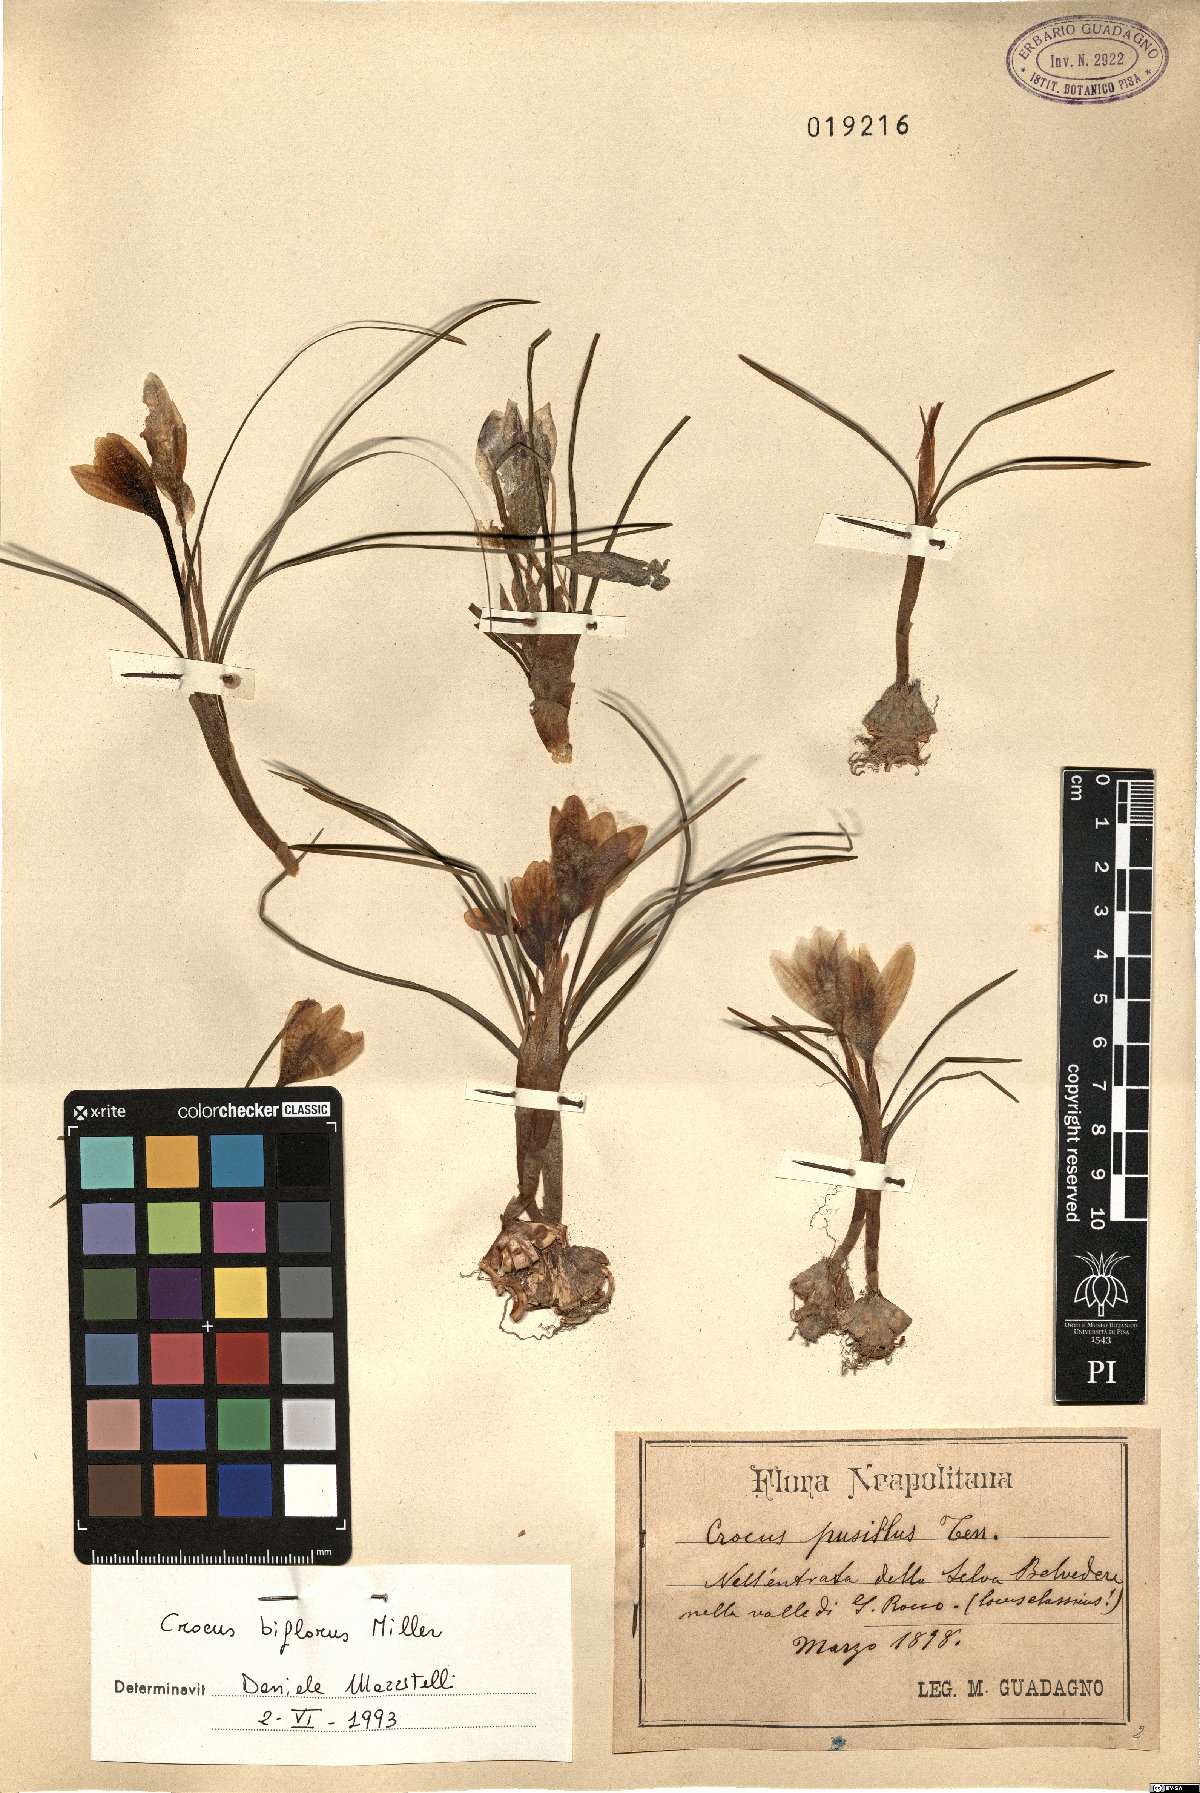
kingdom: Plantae
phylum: Tracheophyta
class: Liliopsida
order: Asparagales
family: Iridaceae
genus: Crocus
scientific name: Crocus biflorus
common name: Silvery crocus
